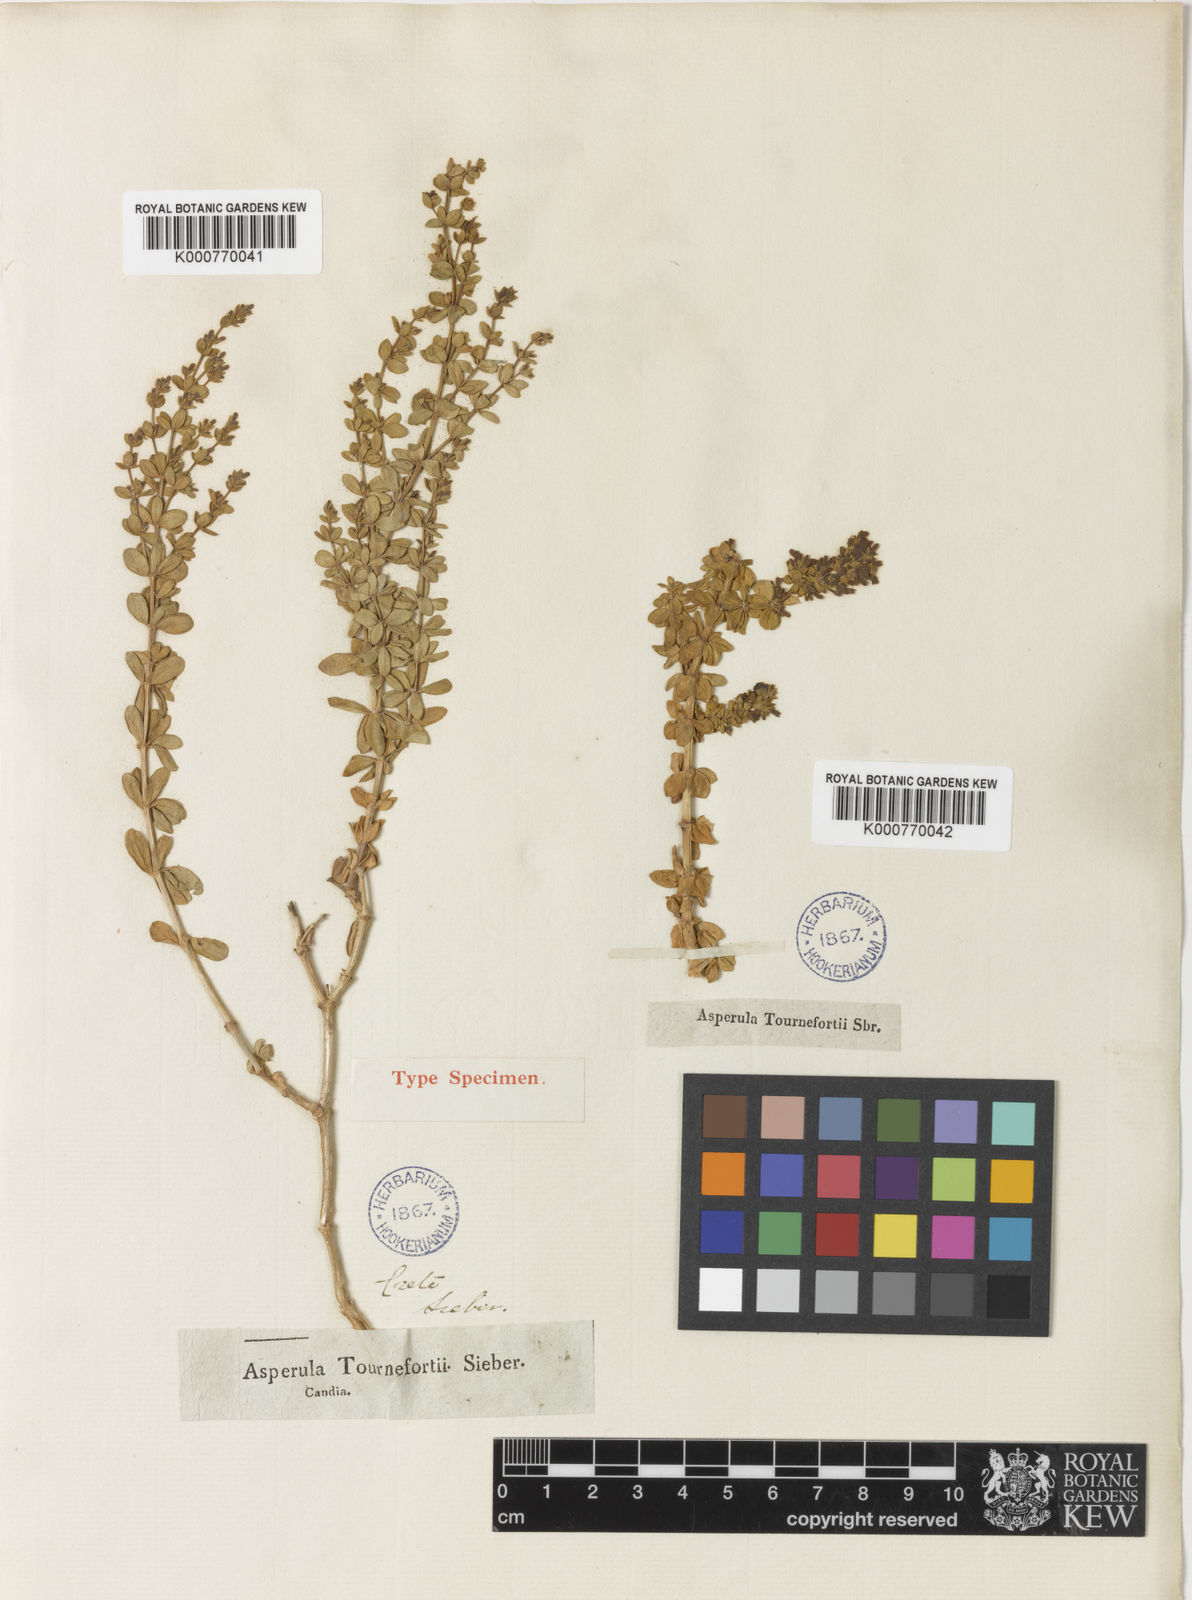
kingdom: Plantae
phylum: Tracheophyta
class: Magnoliopsida
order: Gentianales
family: Rubiaceae
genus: Asperula
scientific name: Asperula tournefortii
